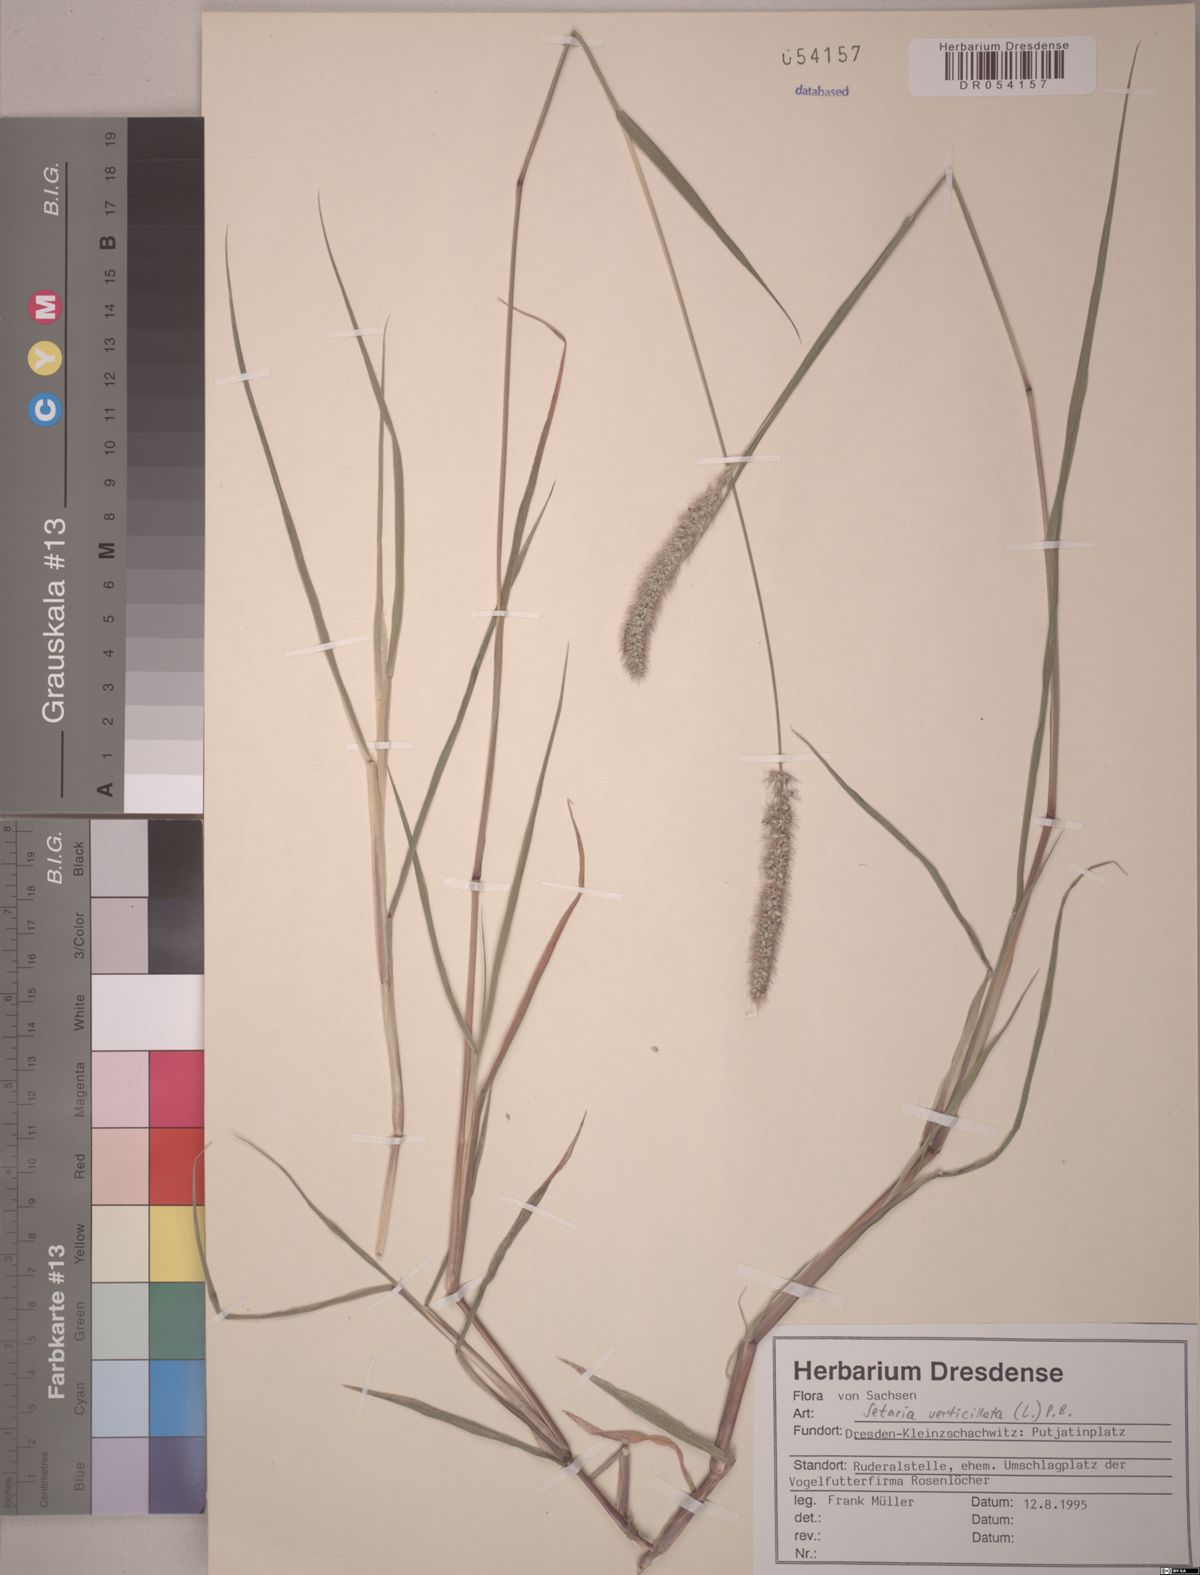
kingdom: Plantae
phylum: Tracheophyta
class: Liliopsida
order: Poales
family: Poaceae
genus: Setaria
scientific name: Setaria verticillata
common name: Hooked bristlegrass
